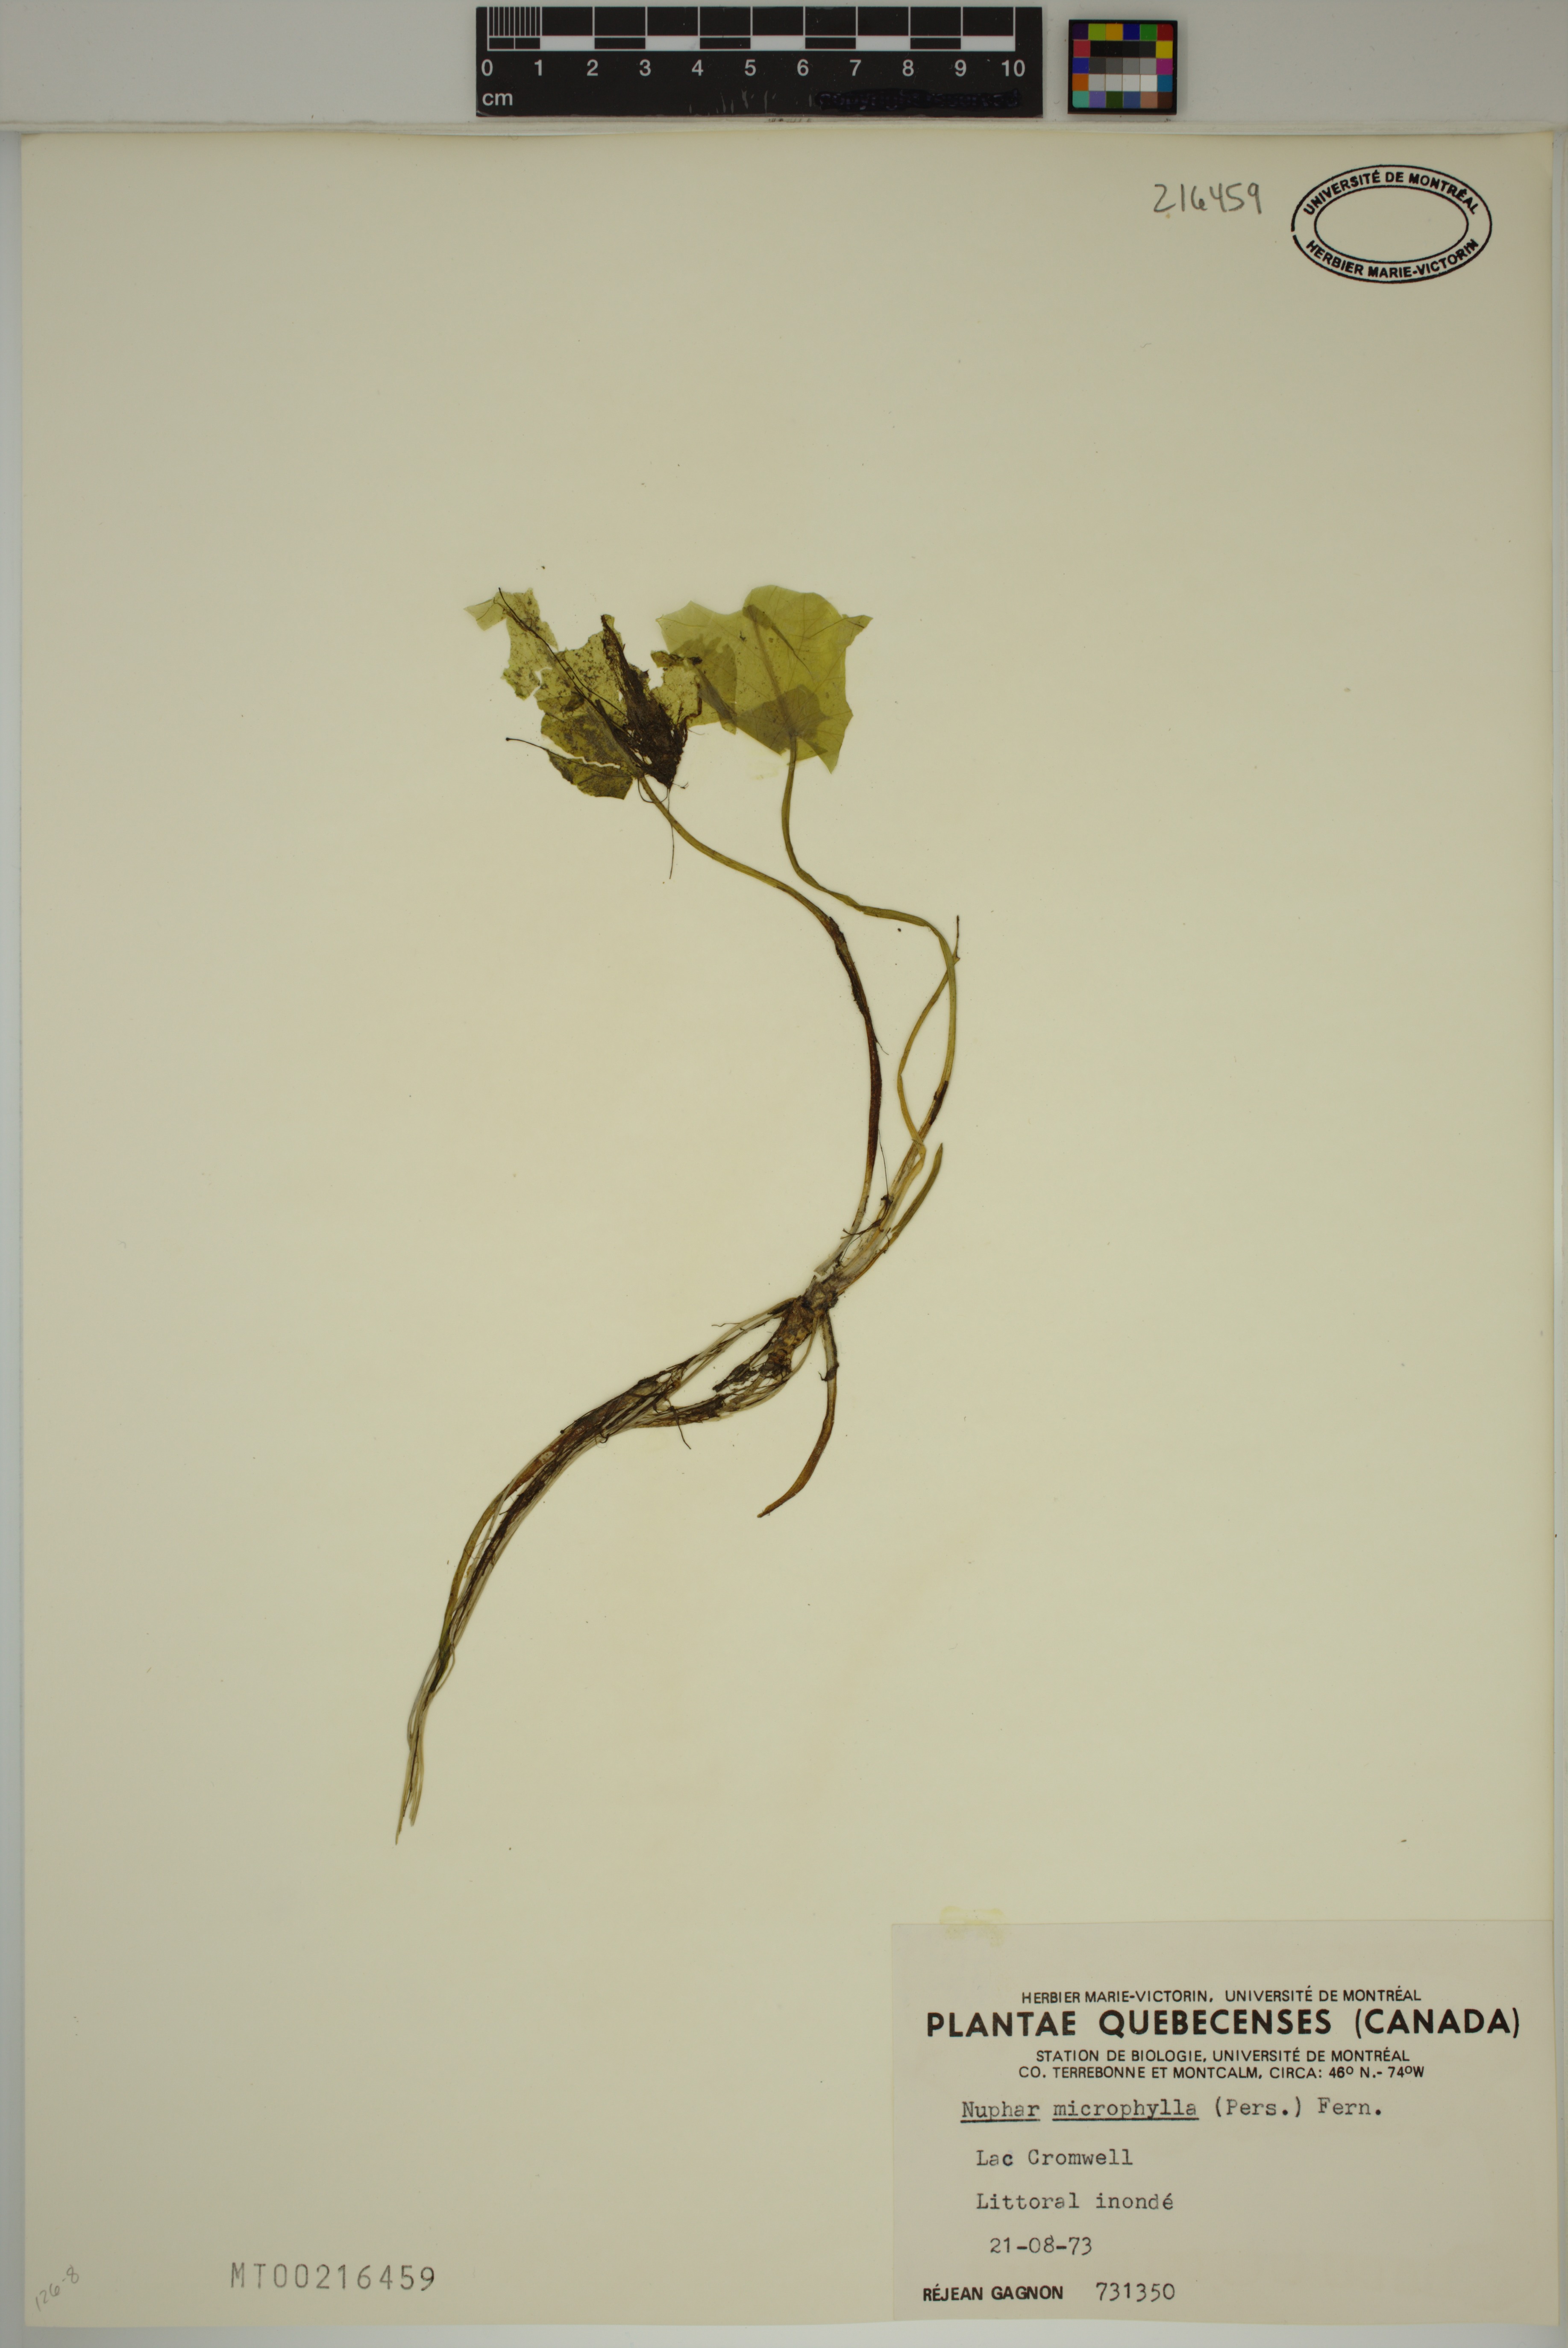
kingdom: Plantae
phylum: Tracheophyta
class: Magnoliopsida
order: Nymphaeales
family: Nymphaeaceae
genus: Nuphar
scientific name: Nuphar microphylla
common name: Small pond-lily
